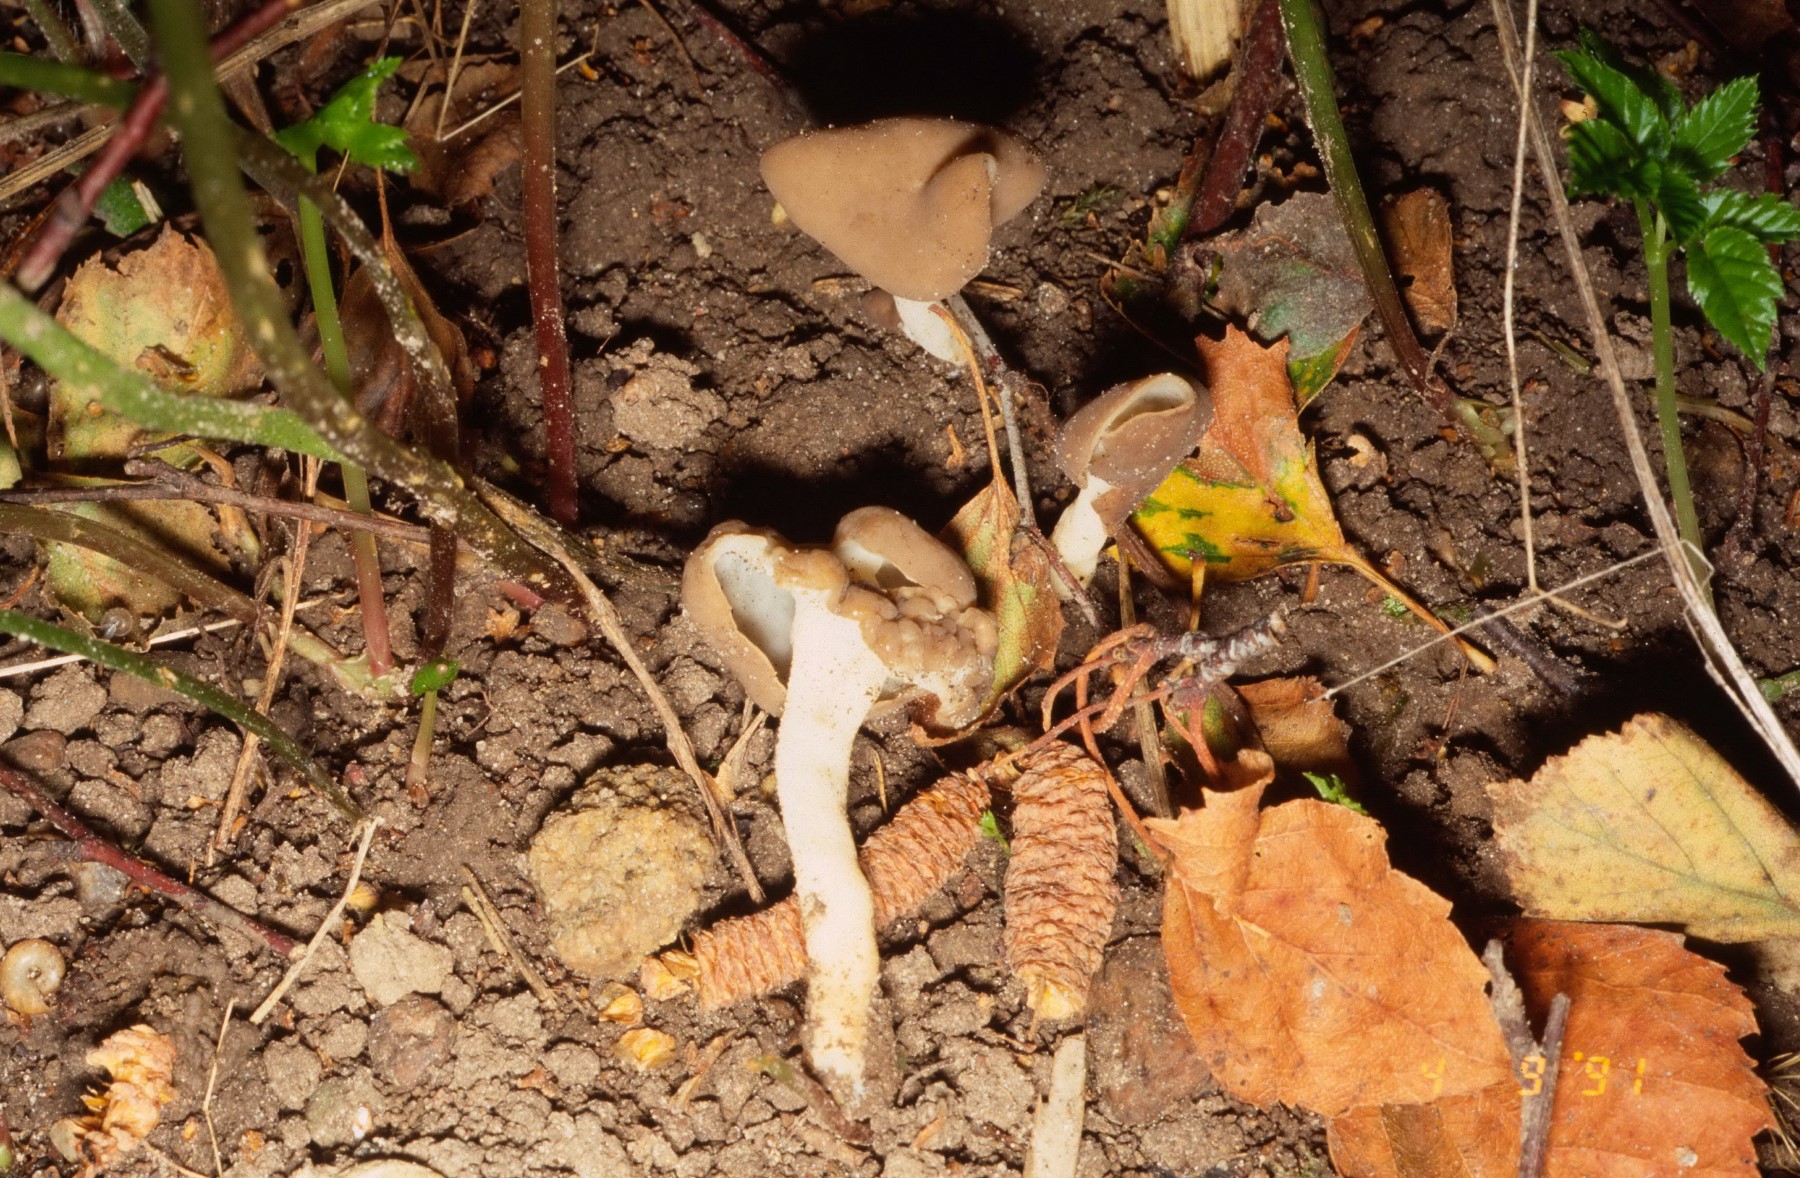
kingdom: Fungi
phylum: Ascomycota
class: Pezizomycetes
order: Pezizales
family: Helvellaceae
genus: Helvella
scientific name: Helvella
